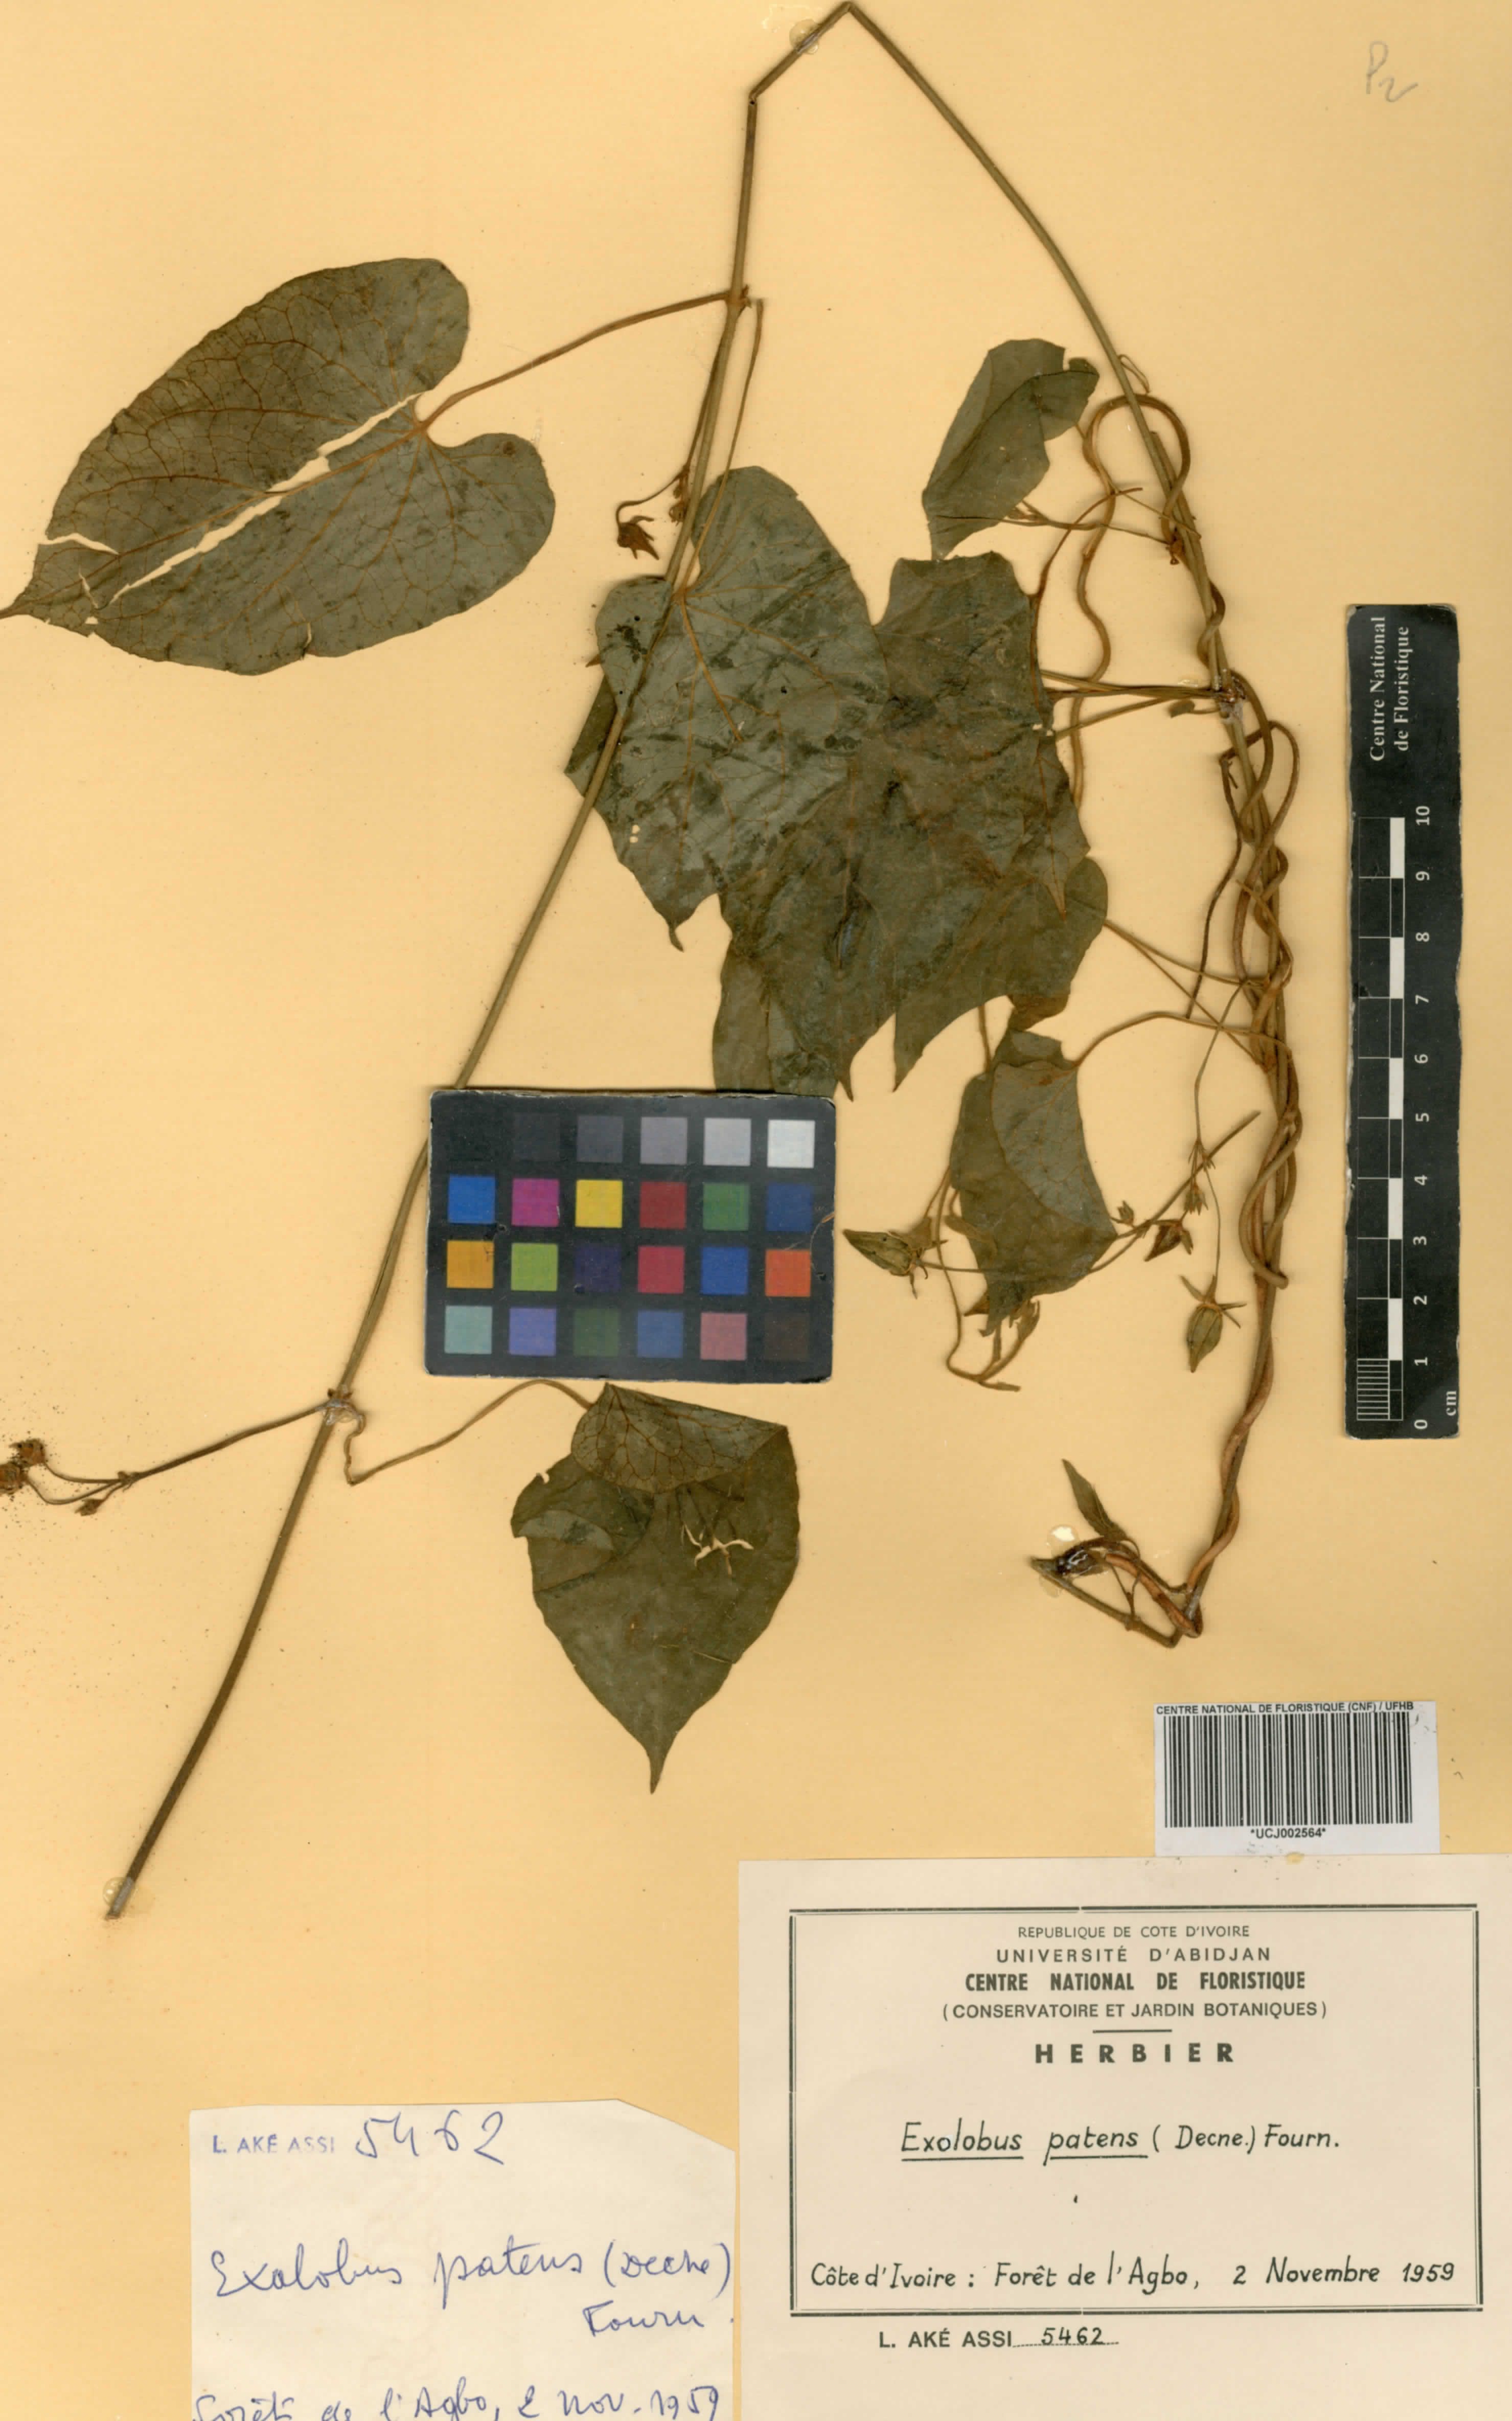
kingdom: Plantae
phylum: Tracheophyta
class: Magnoliopsida
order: Gentianales
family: Apocynaceae
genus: Gonolobus
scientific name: Gonolobus rostratus
